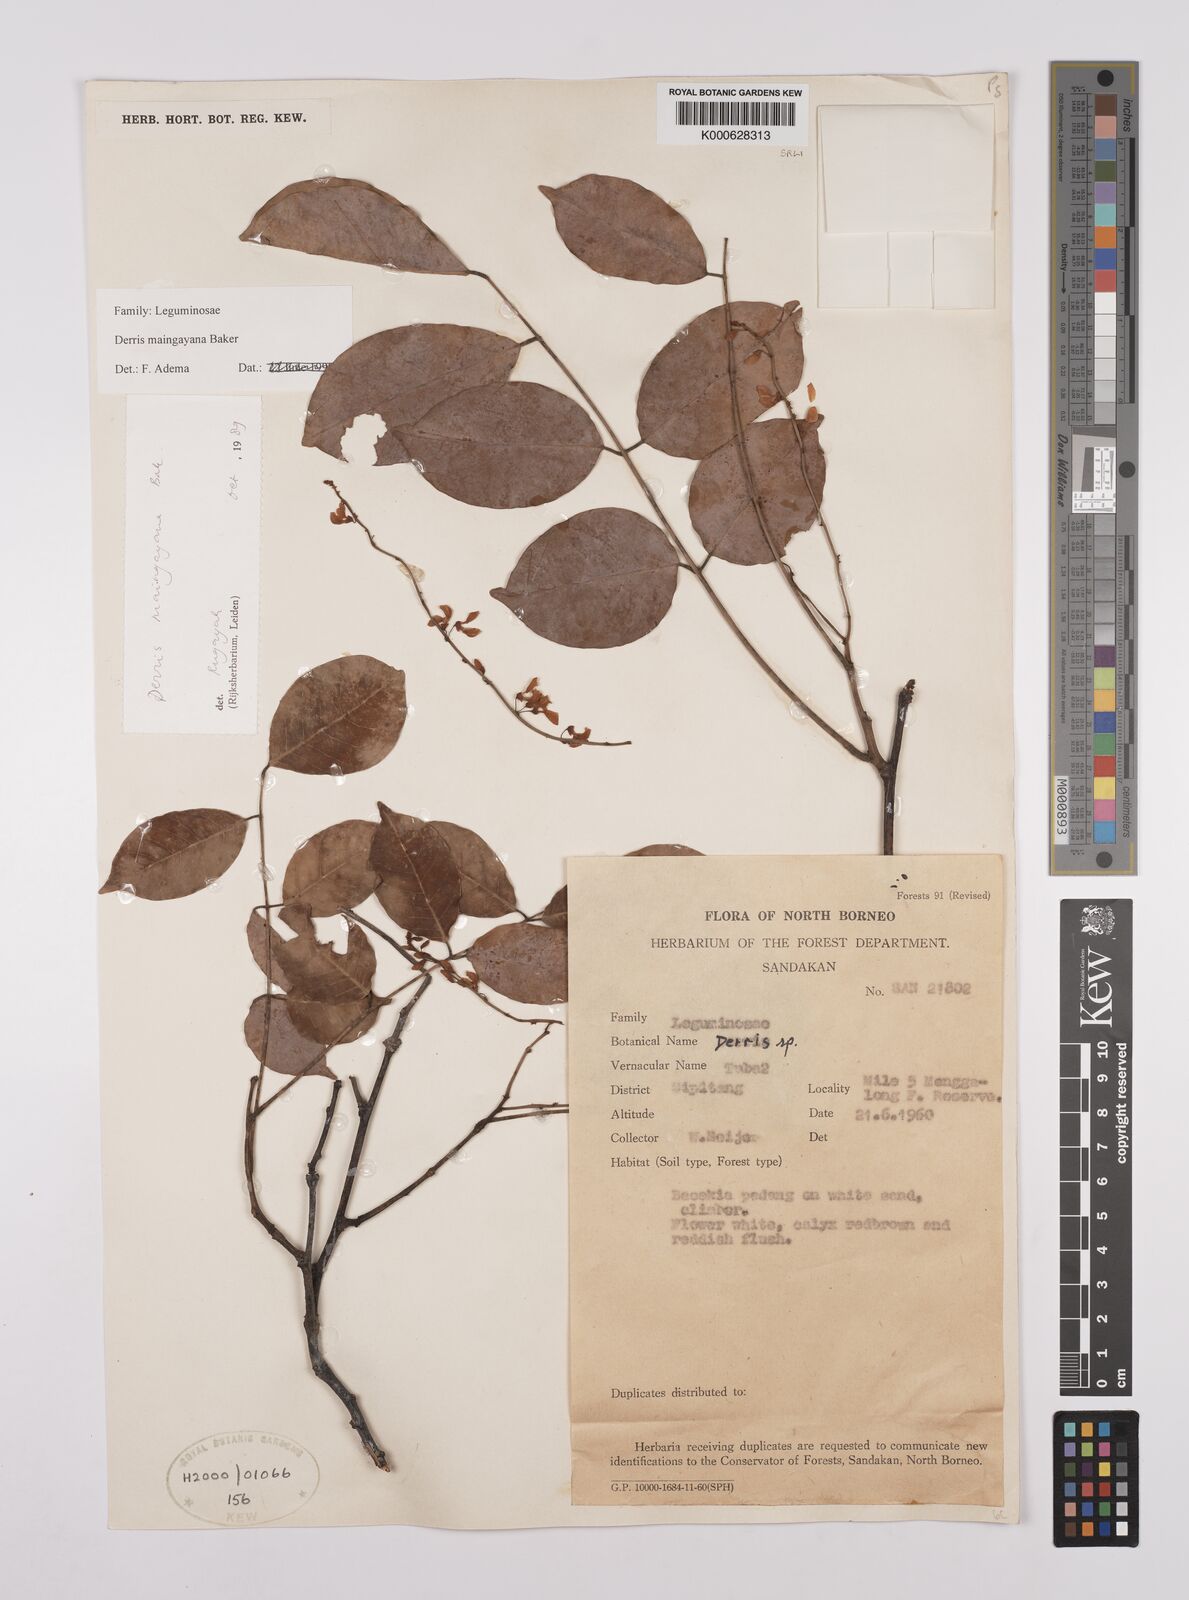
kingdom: Plantae
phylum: Tracheophyta
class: Magnoliopsida
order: Fabales
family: Fabaceae
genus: Derris
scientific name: Derris amoena
